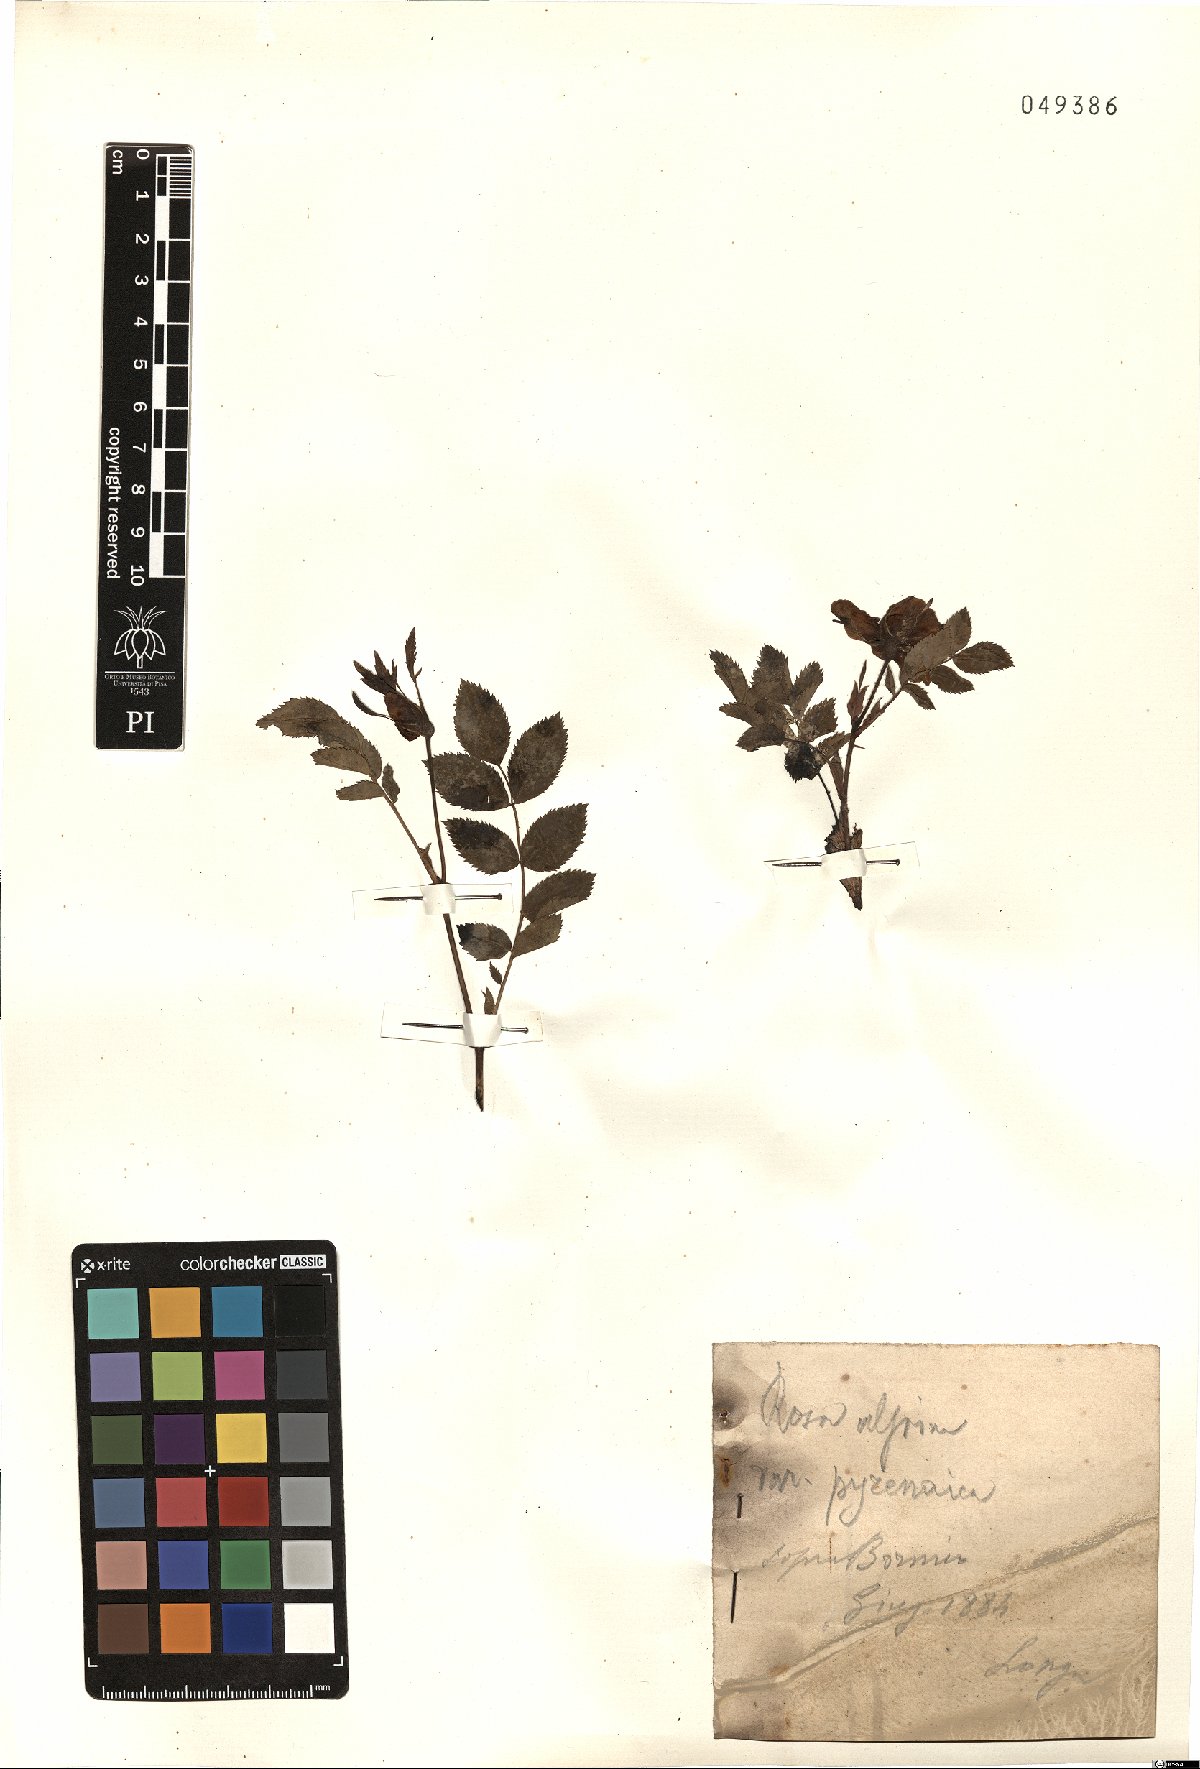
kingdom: Plantae
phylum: Tracheophyta
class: Magnoliopsida
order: Rosales
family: Rosaceae
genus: Rosa
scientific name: Rosa pendulina
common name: Alpine rose
